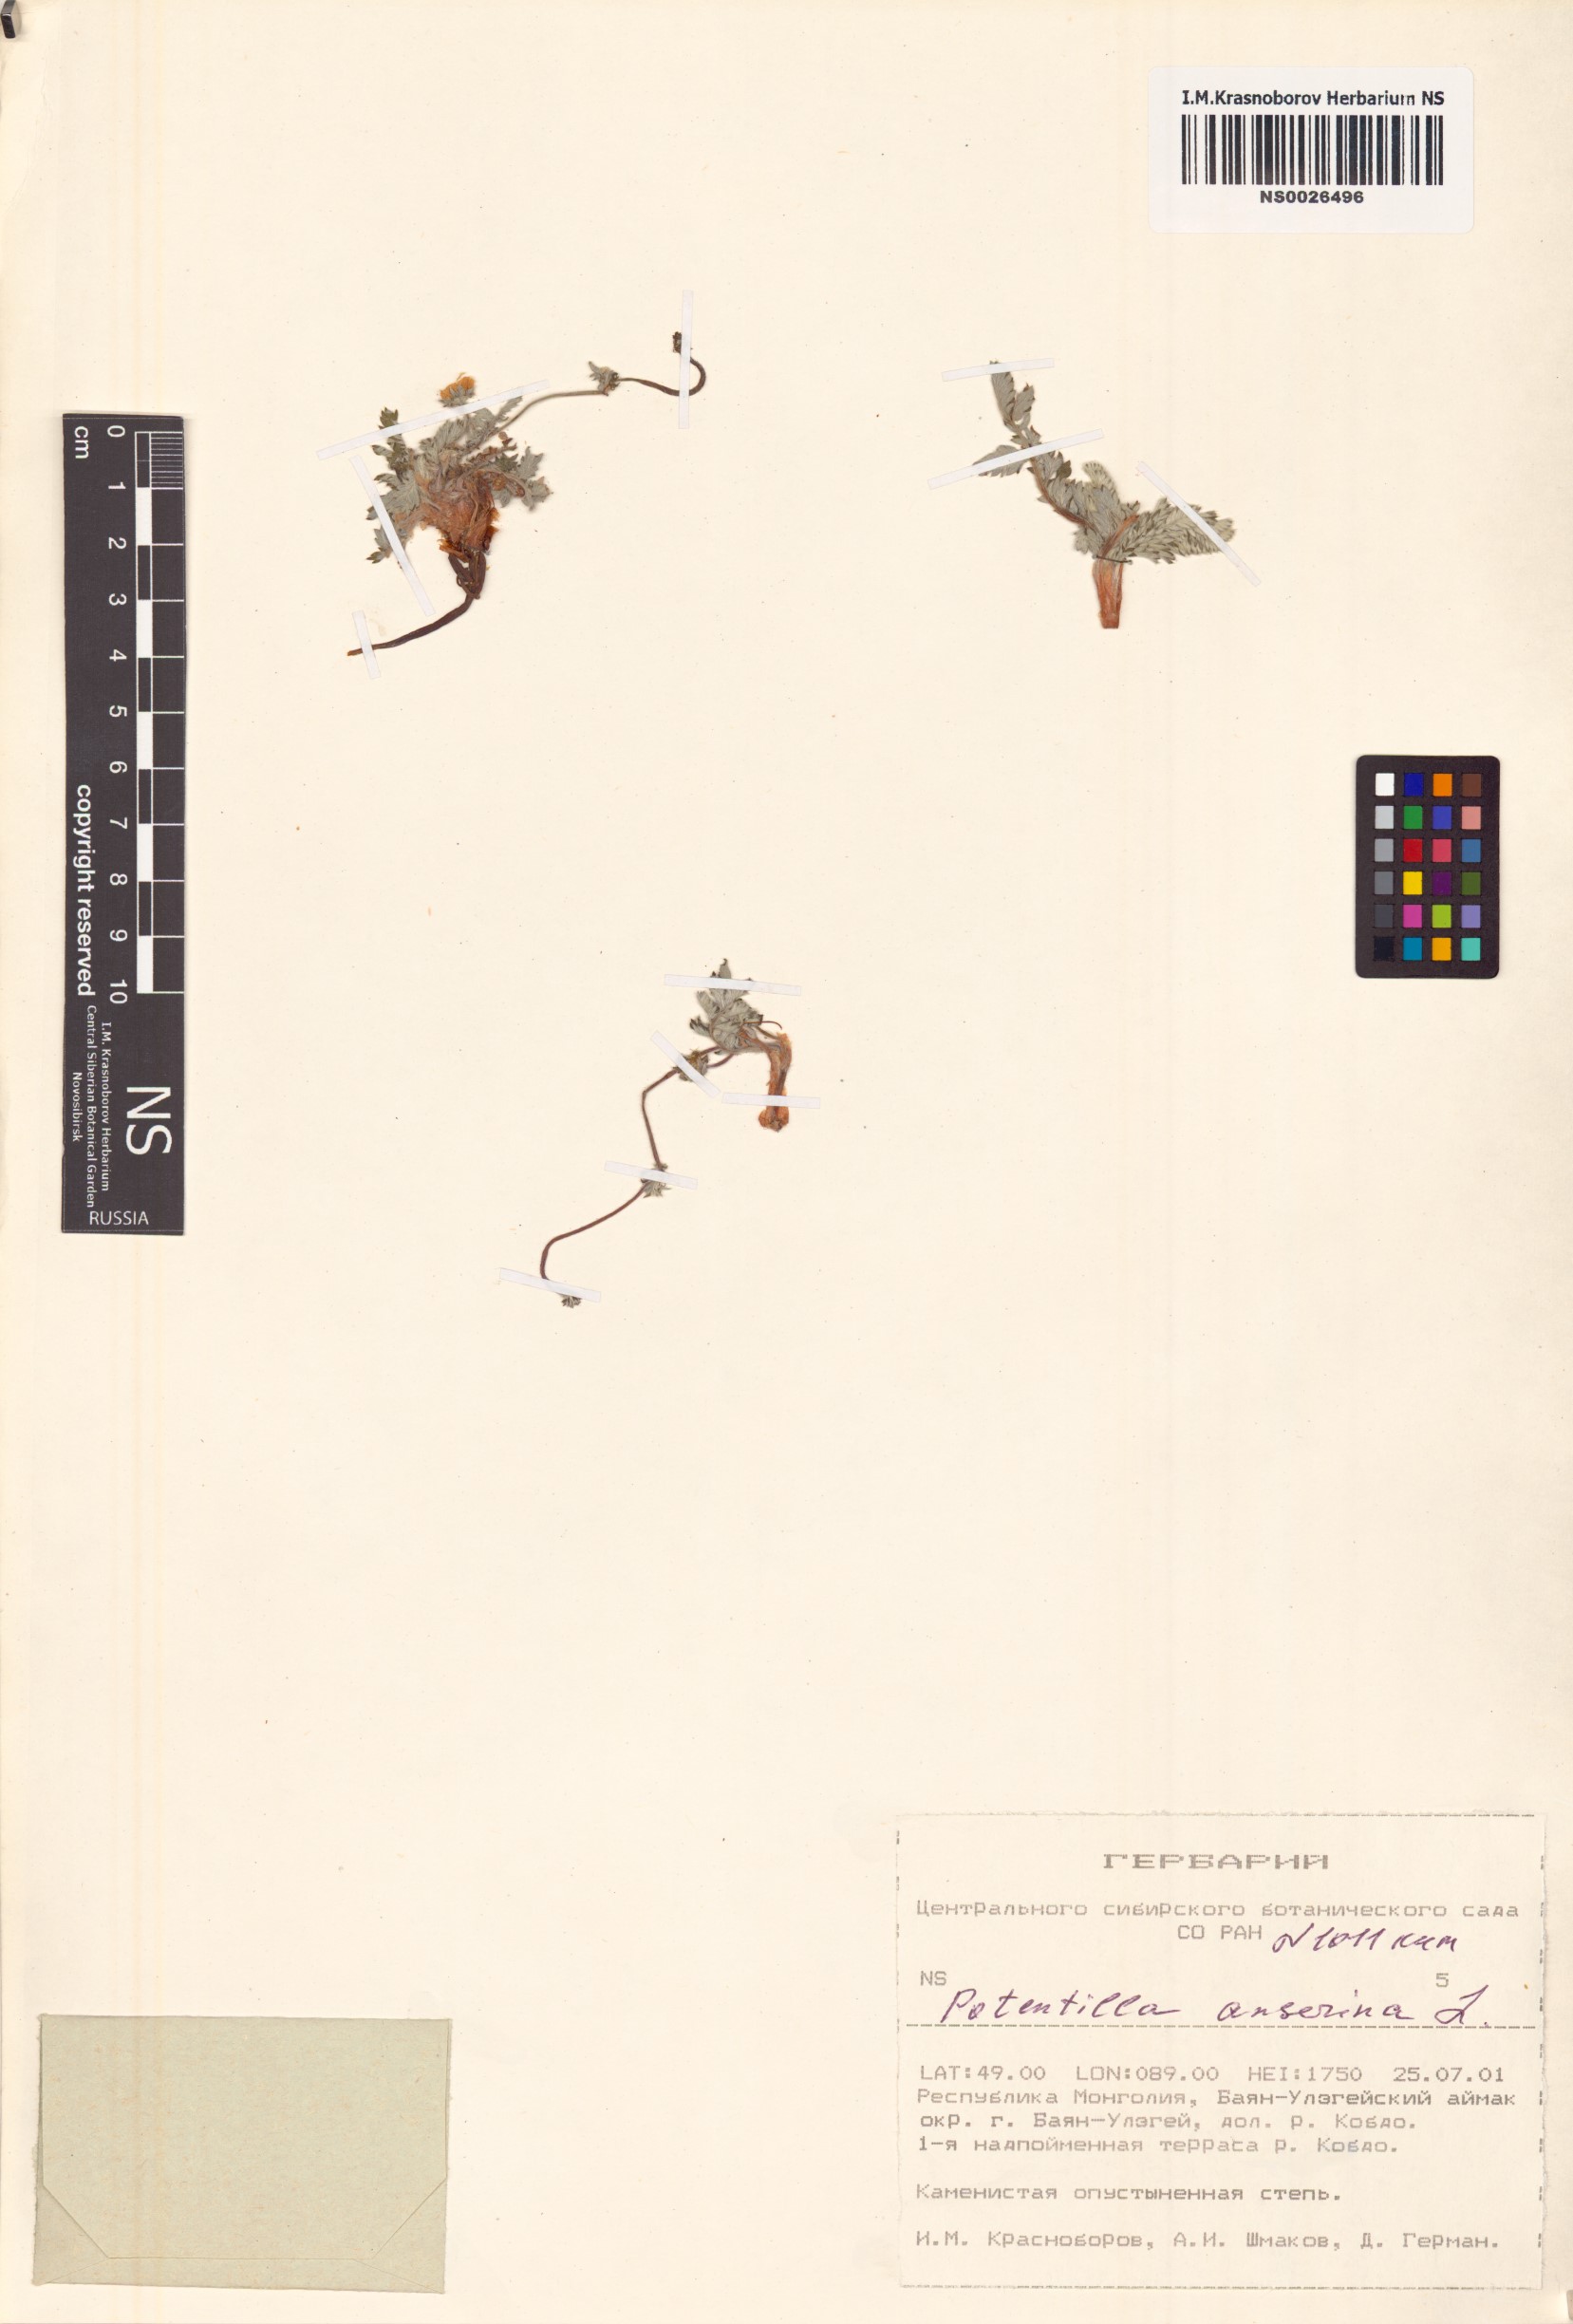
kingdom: Plantae
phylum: Tracheophyta
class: Magnoliopsida
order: Rosales
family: Rosaceae
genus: Argentina
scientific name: Argentina anserina
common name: Common silverweed
